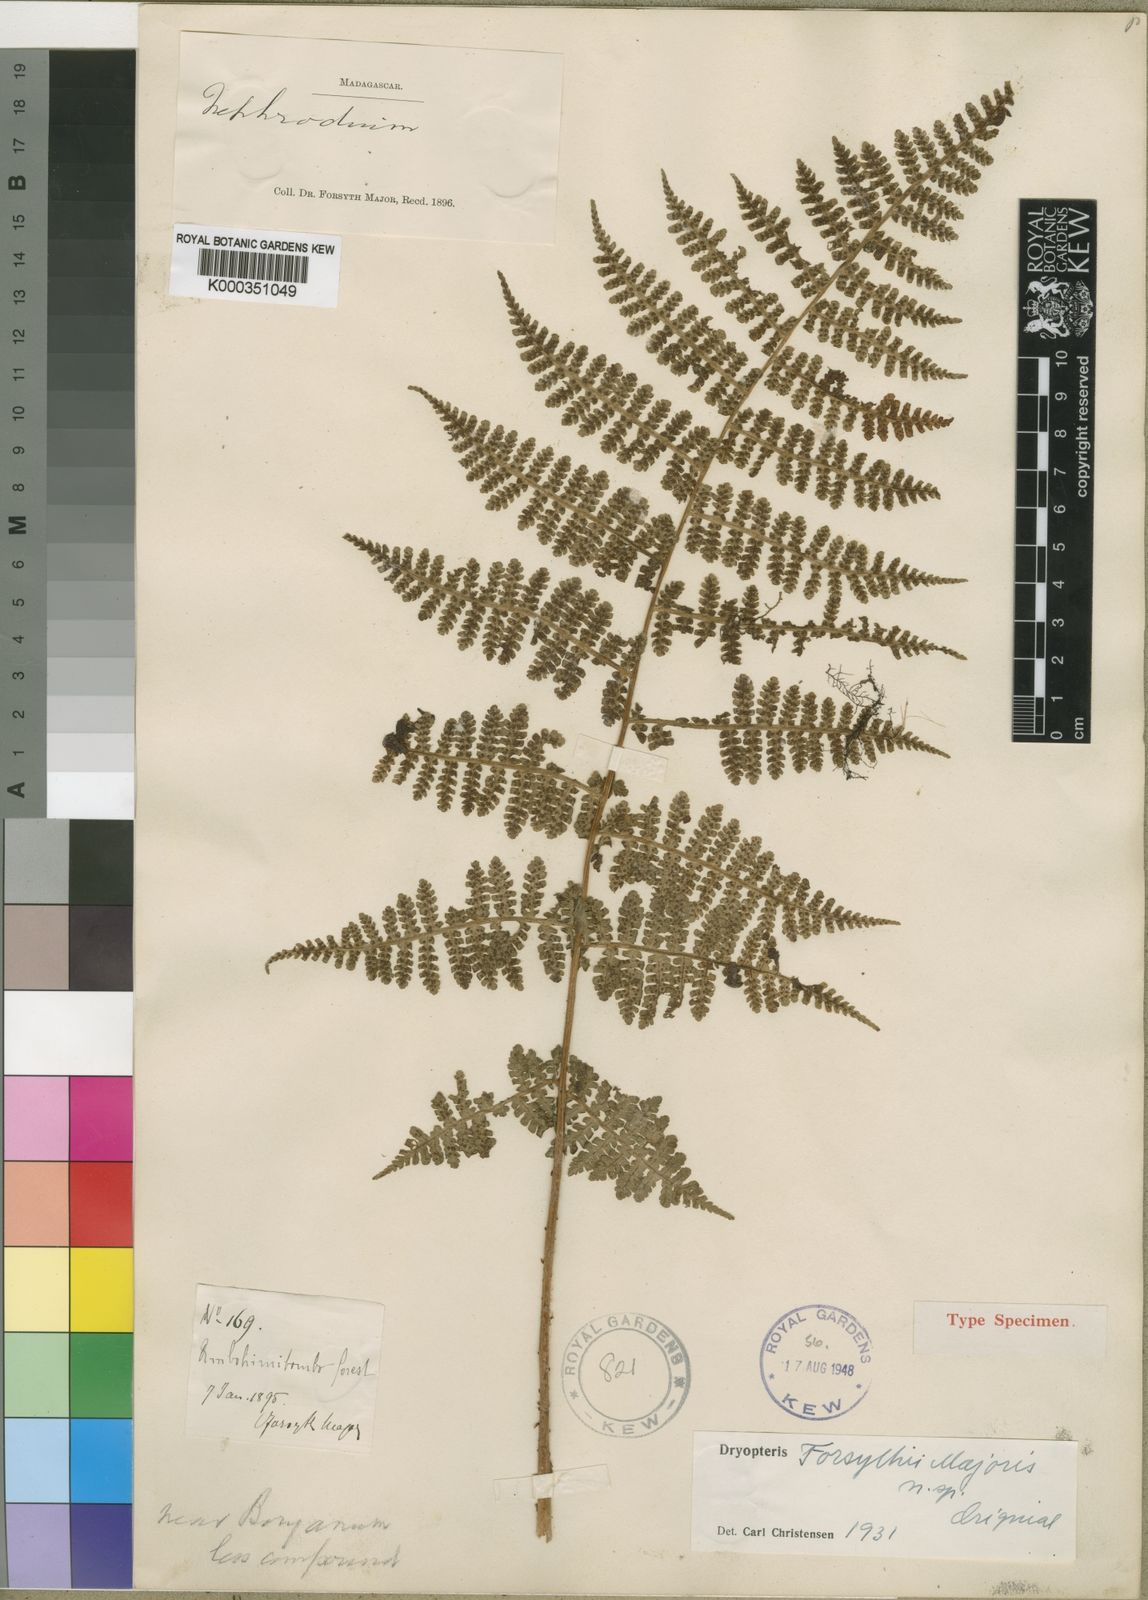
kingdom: Plantae
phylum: Tracheophyta
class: Polypodiopsida
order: Polypodiales
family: Athyriaceae
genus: Deparia
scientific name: Deparia
